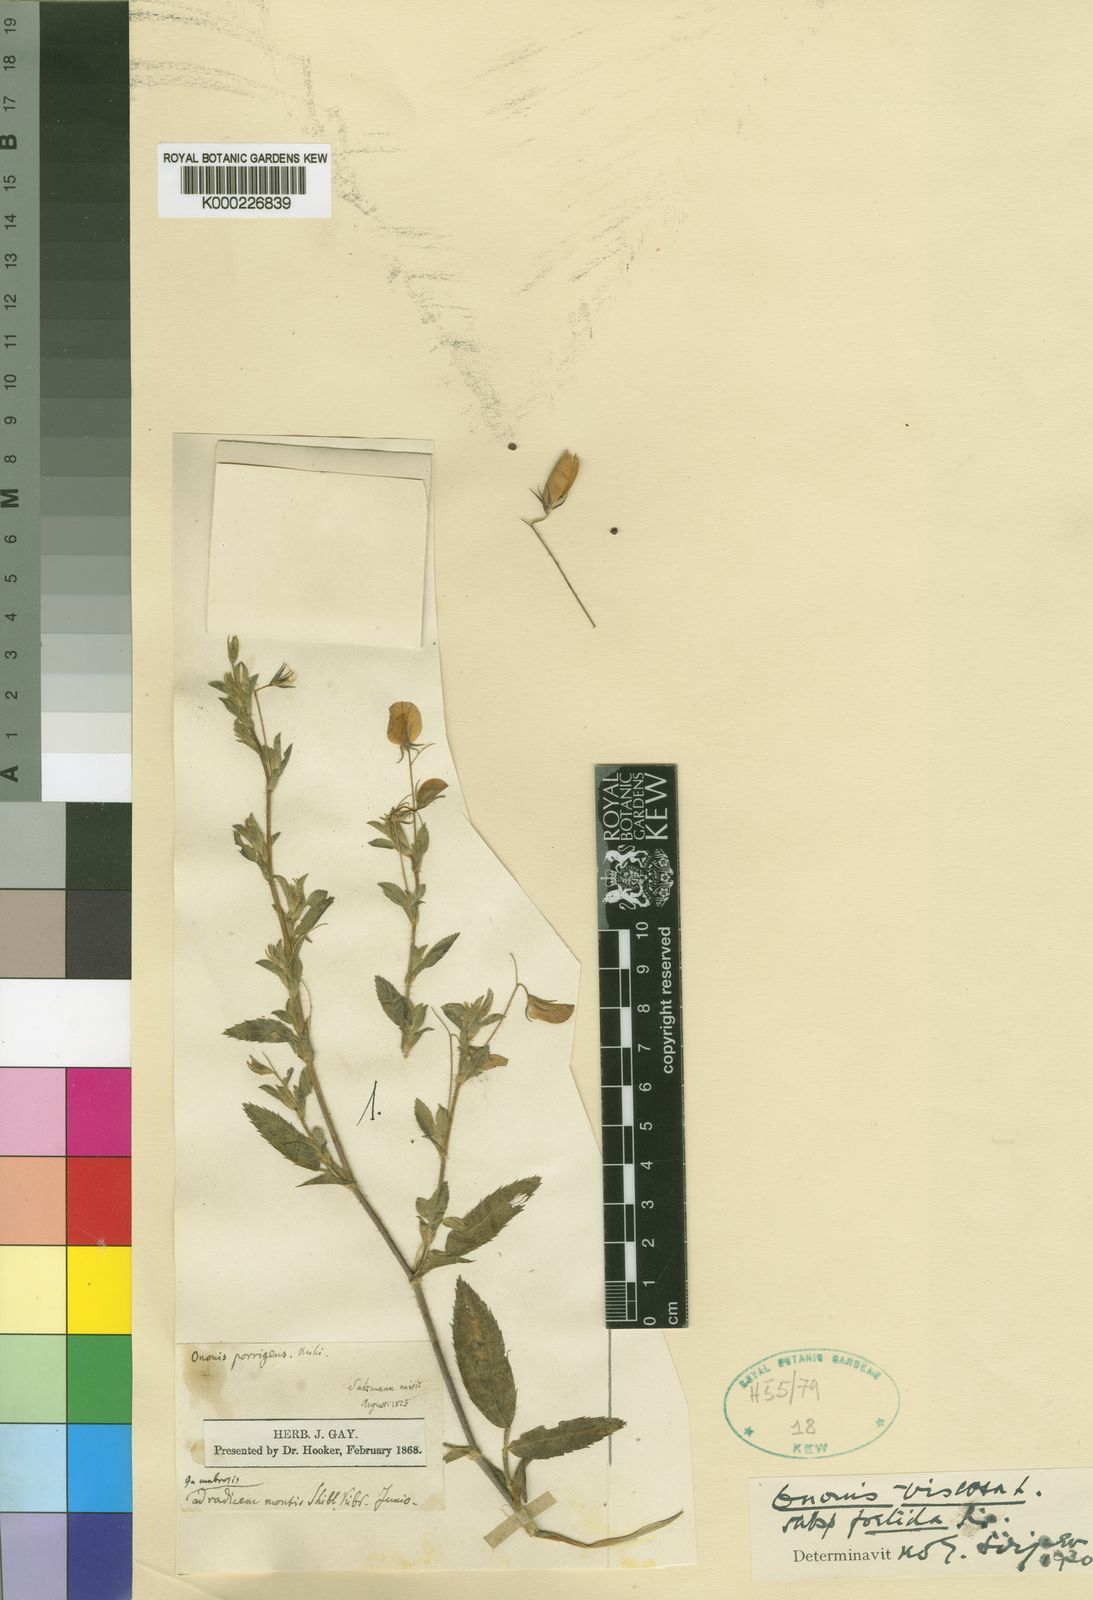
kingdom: Plantae
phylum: Tracheophyta
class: Magnoliopsida
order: Fabales
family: Fabaceae
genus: Ononis
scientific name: Ononis viscosa
